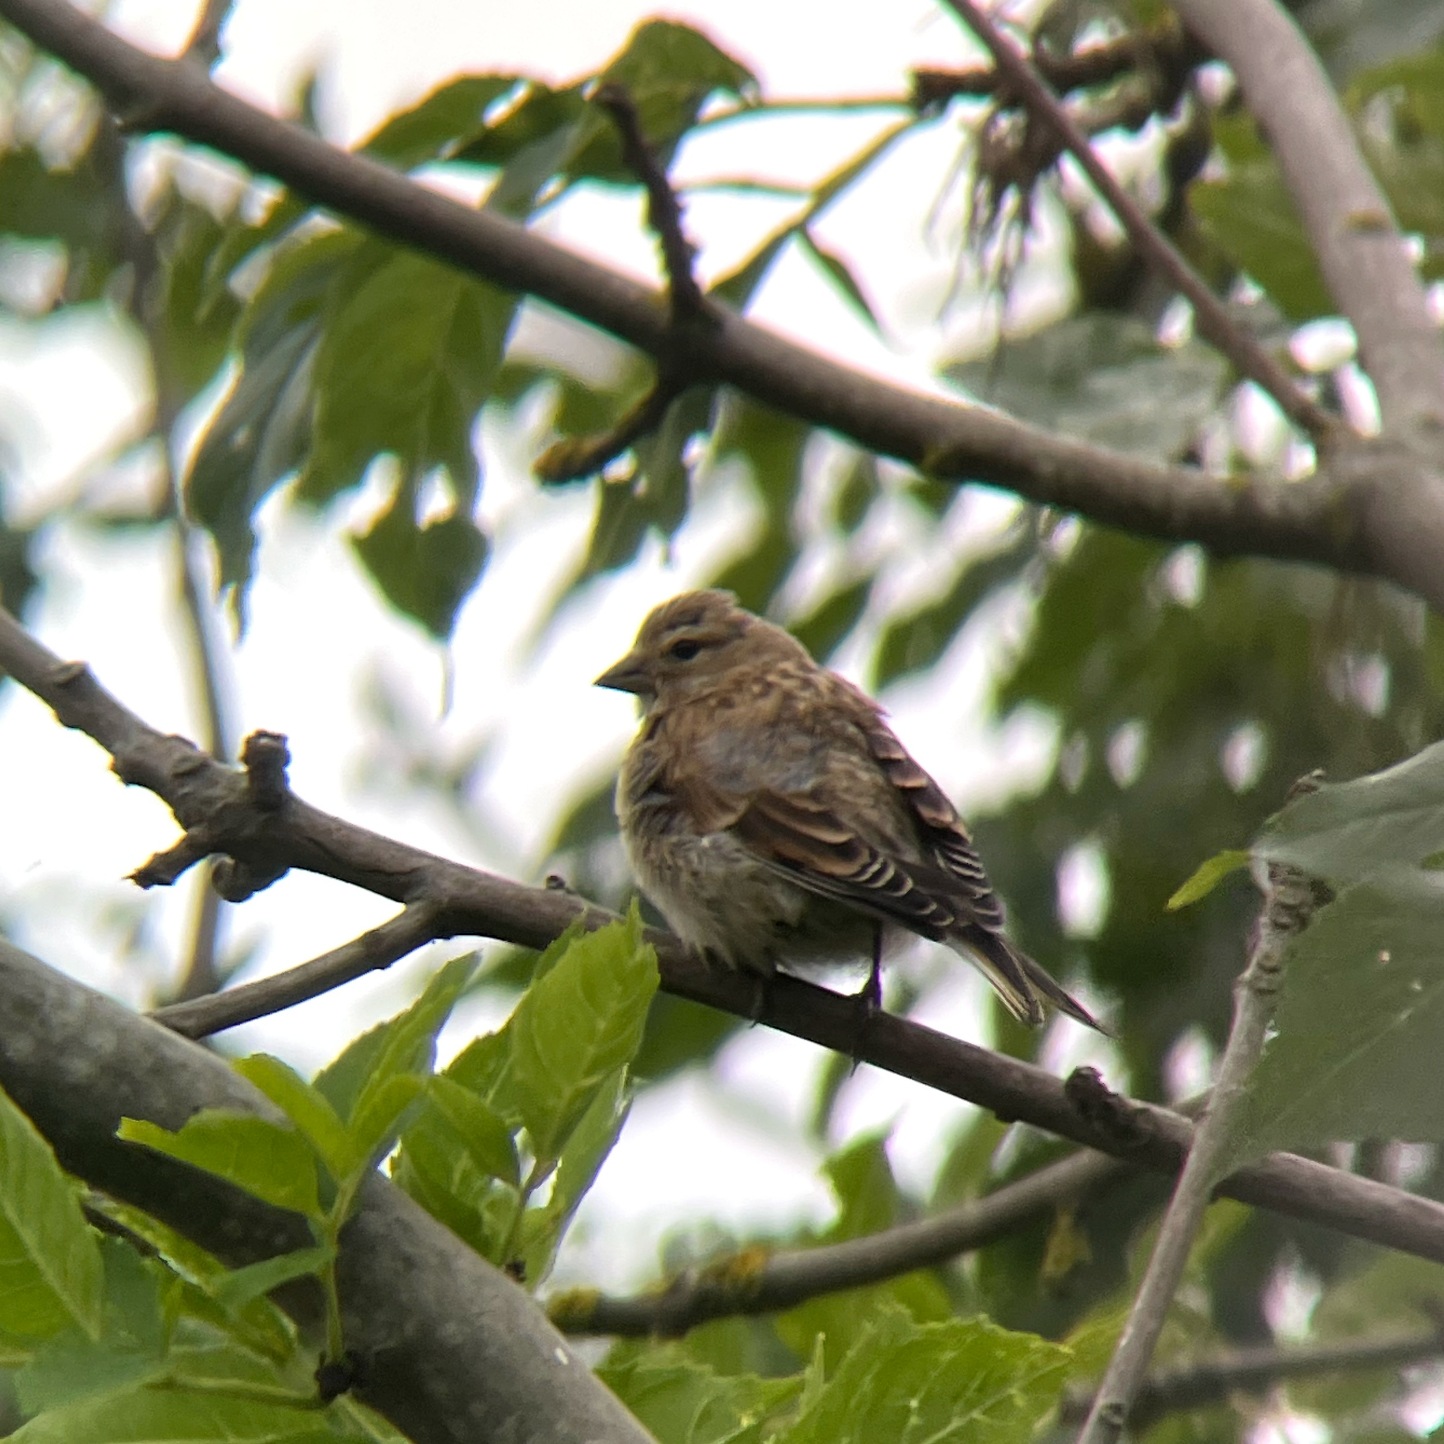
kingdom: Animalia
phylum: Chordata
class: Aves
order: Passeriformes
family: Fringillidae
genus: Linaria
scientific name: Linaria cannabina
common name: Tornirisk
